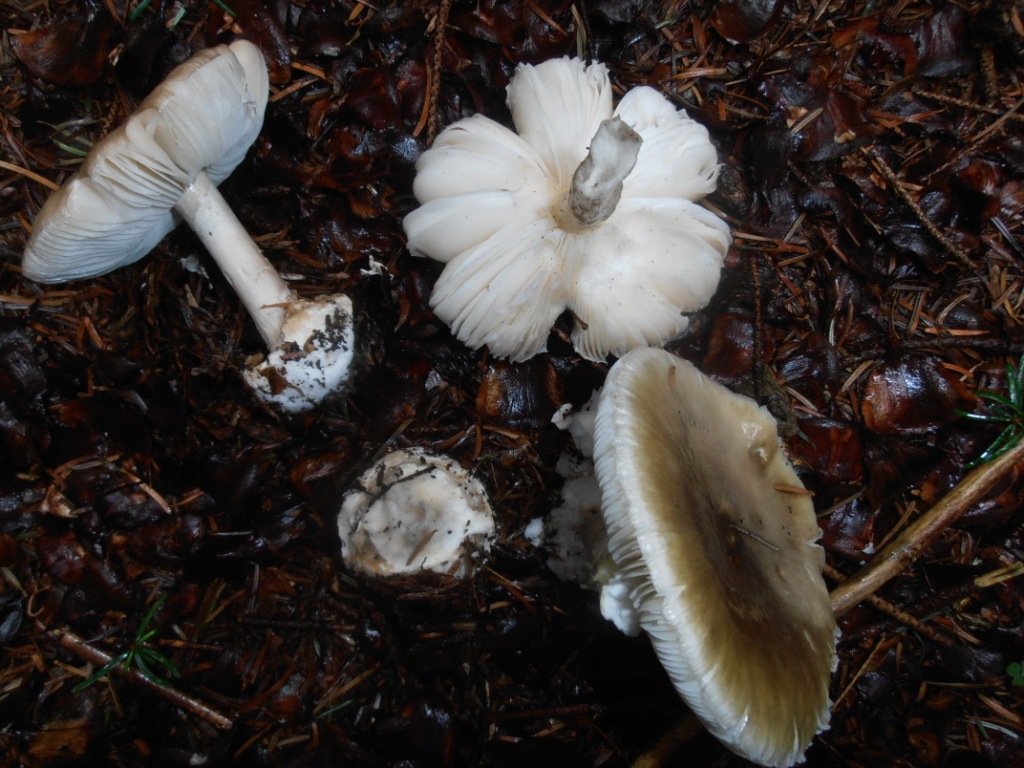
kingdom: Fungi
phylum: Basidiomycota
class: Agaricomycetes
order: Agaricales
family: Amanitaceae
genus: Amanita
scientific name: Amanita phalloides
